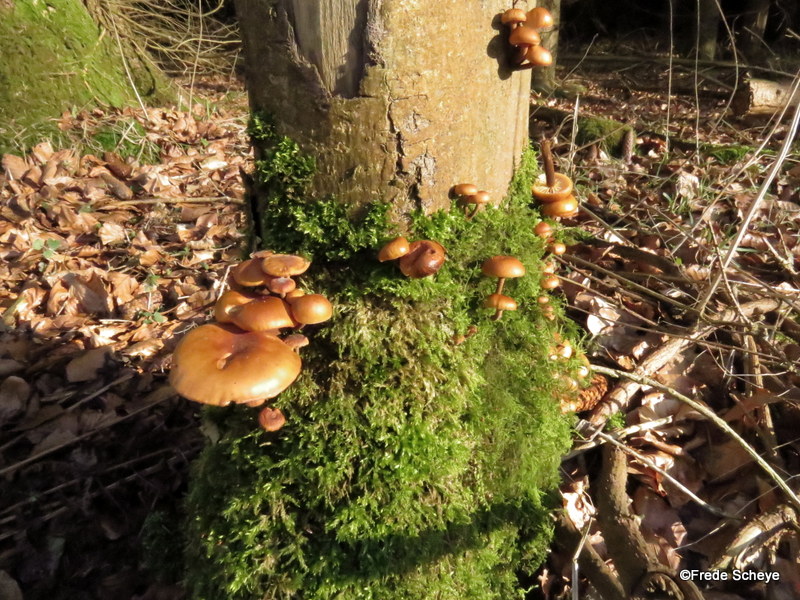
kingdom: Fungi
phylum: Basidiomycota
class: Agaricomycetes
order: Agaricales
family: Physalacriaceae
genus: Flammulina
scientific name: Flammulina velutipes
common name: gul fløjlsfod
